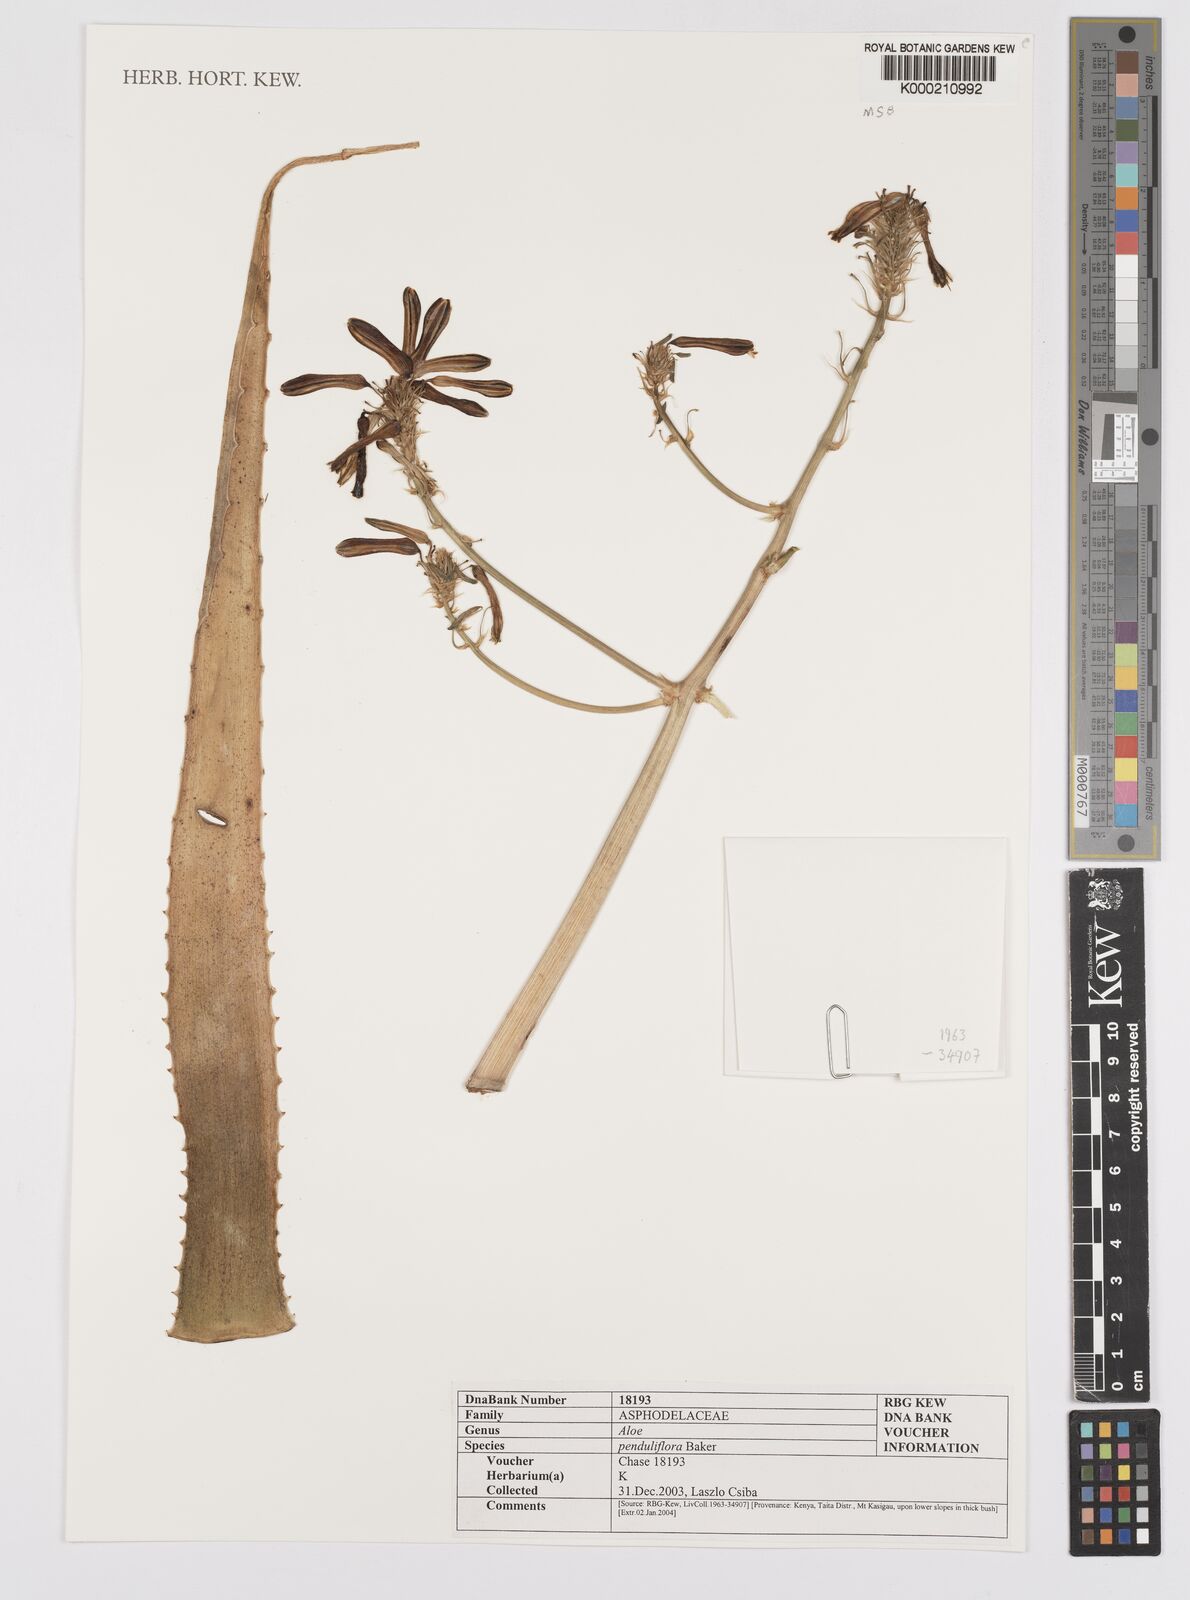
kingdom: Plantae
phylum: Tracheophyta
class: Liliopsida
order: Asparagales
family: Asphodelaceae
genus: Aloe
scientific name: Aloe penduliflora
